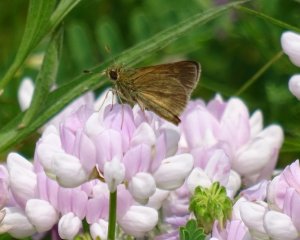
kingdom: Animalia
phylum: Arthropoda
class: Insecta
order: Lepidoptera
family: Hesperiidae
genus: Euphyes
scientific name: Euphyes vestris
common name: Dun Skipper
